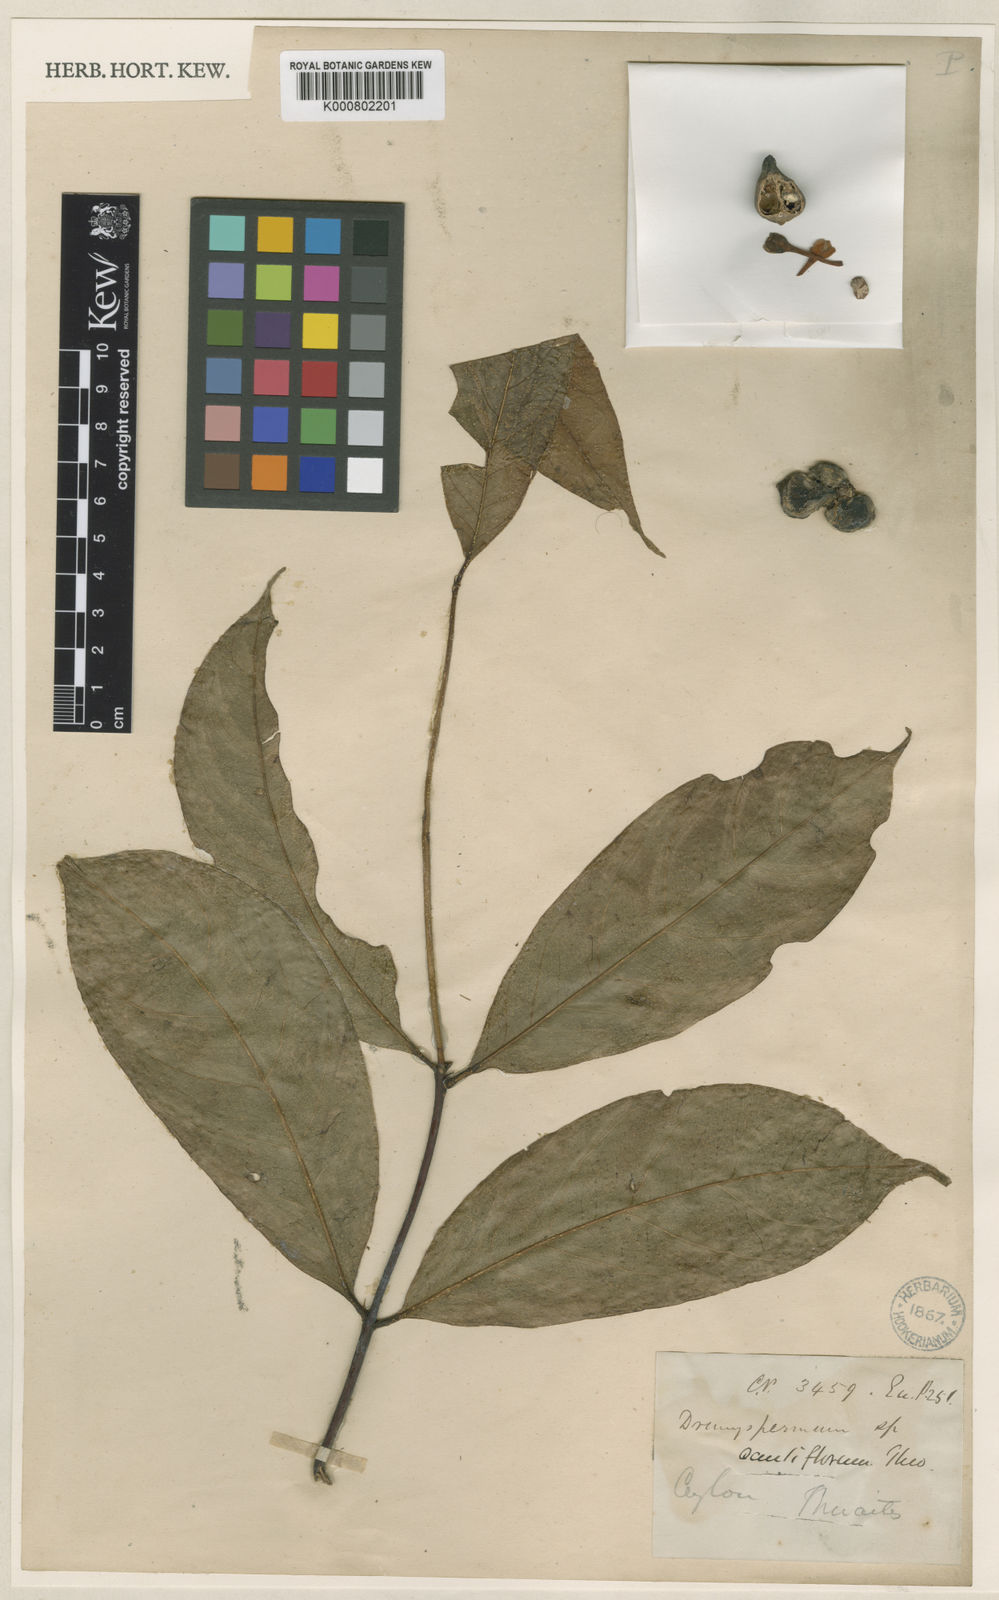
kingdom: Plantae
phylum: Tracheophyta
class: Magnoliopsida
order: Malvales
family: Thymelaeaceae
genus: Phaleria
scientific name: Phaleria capitata
